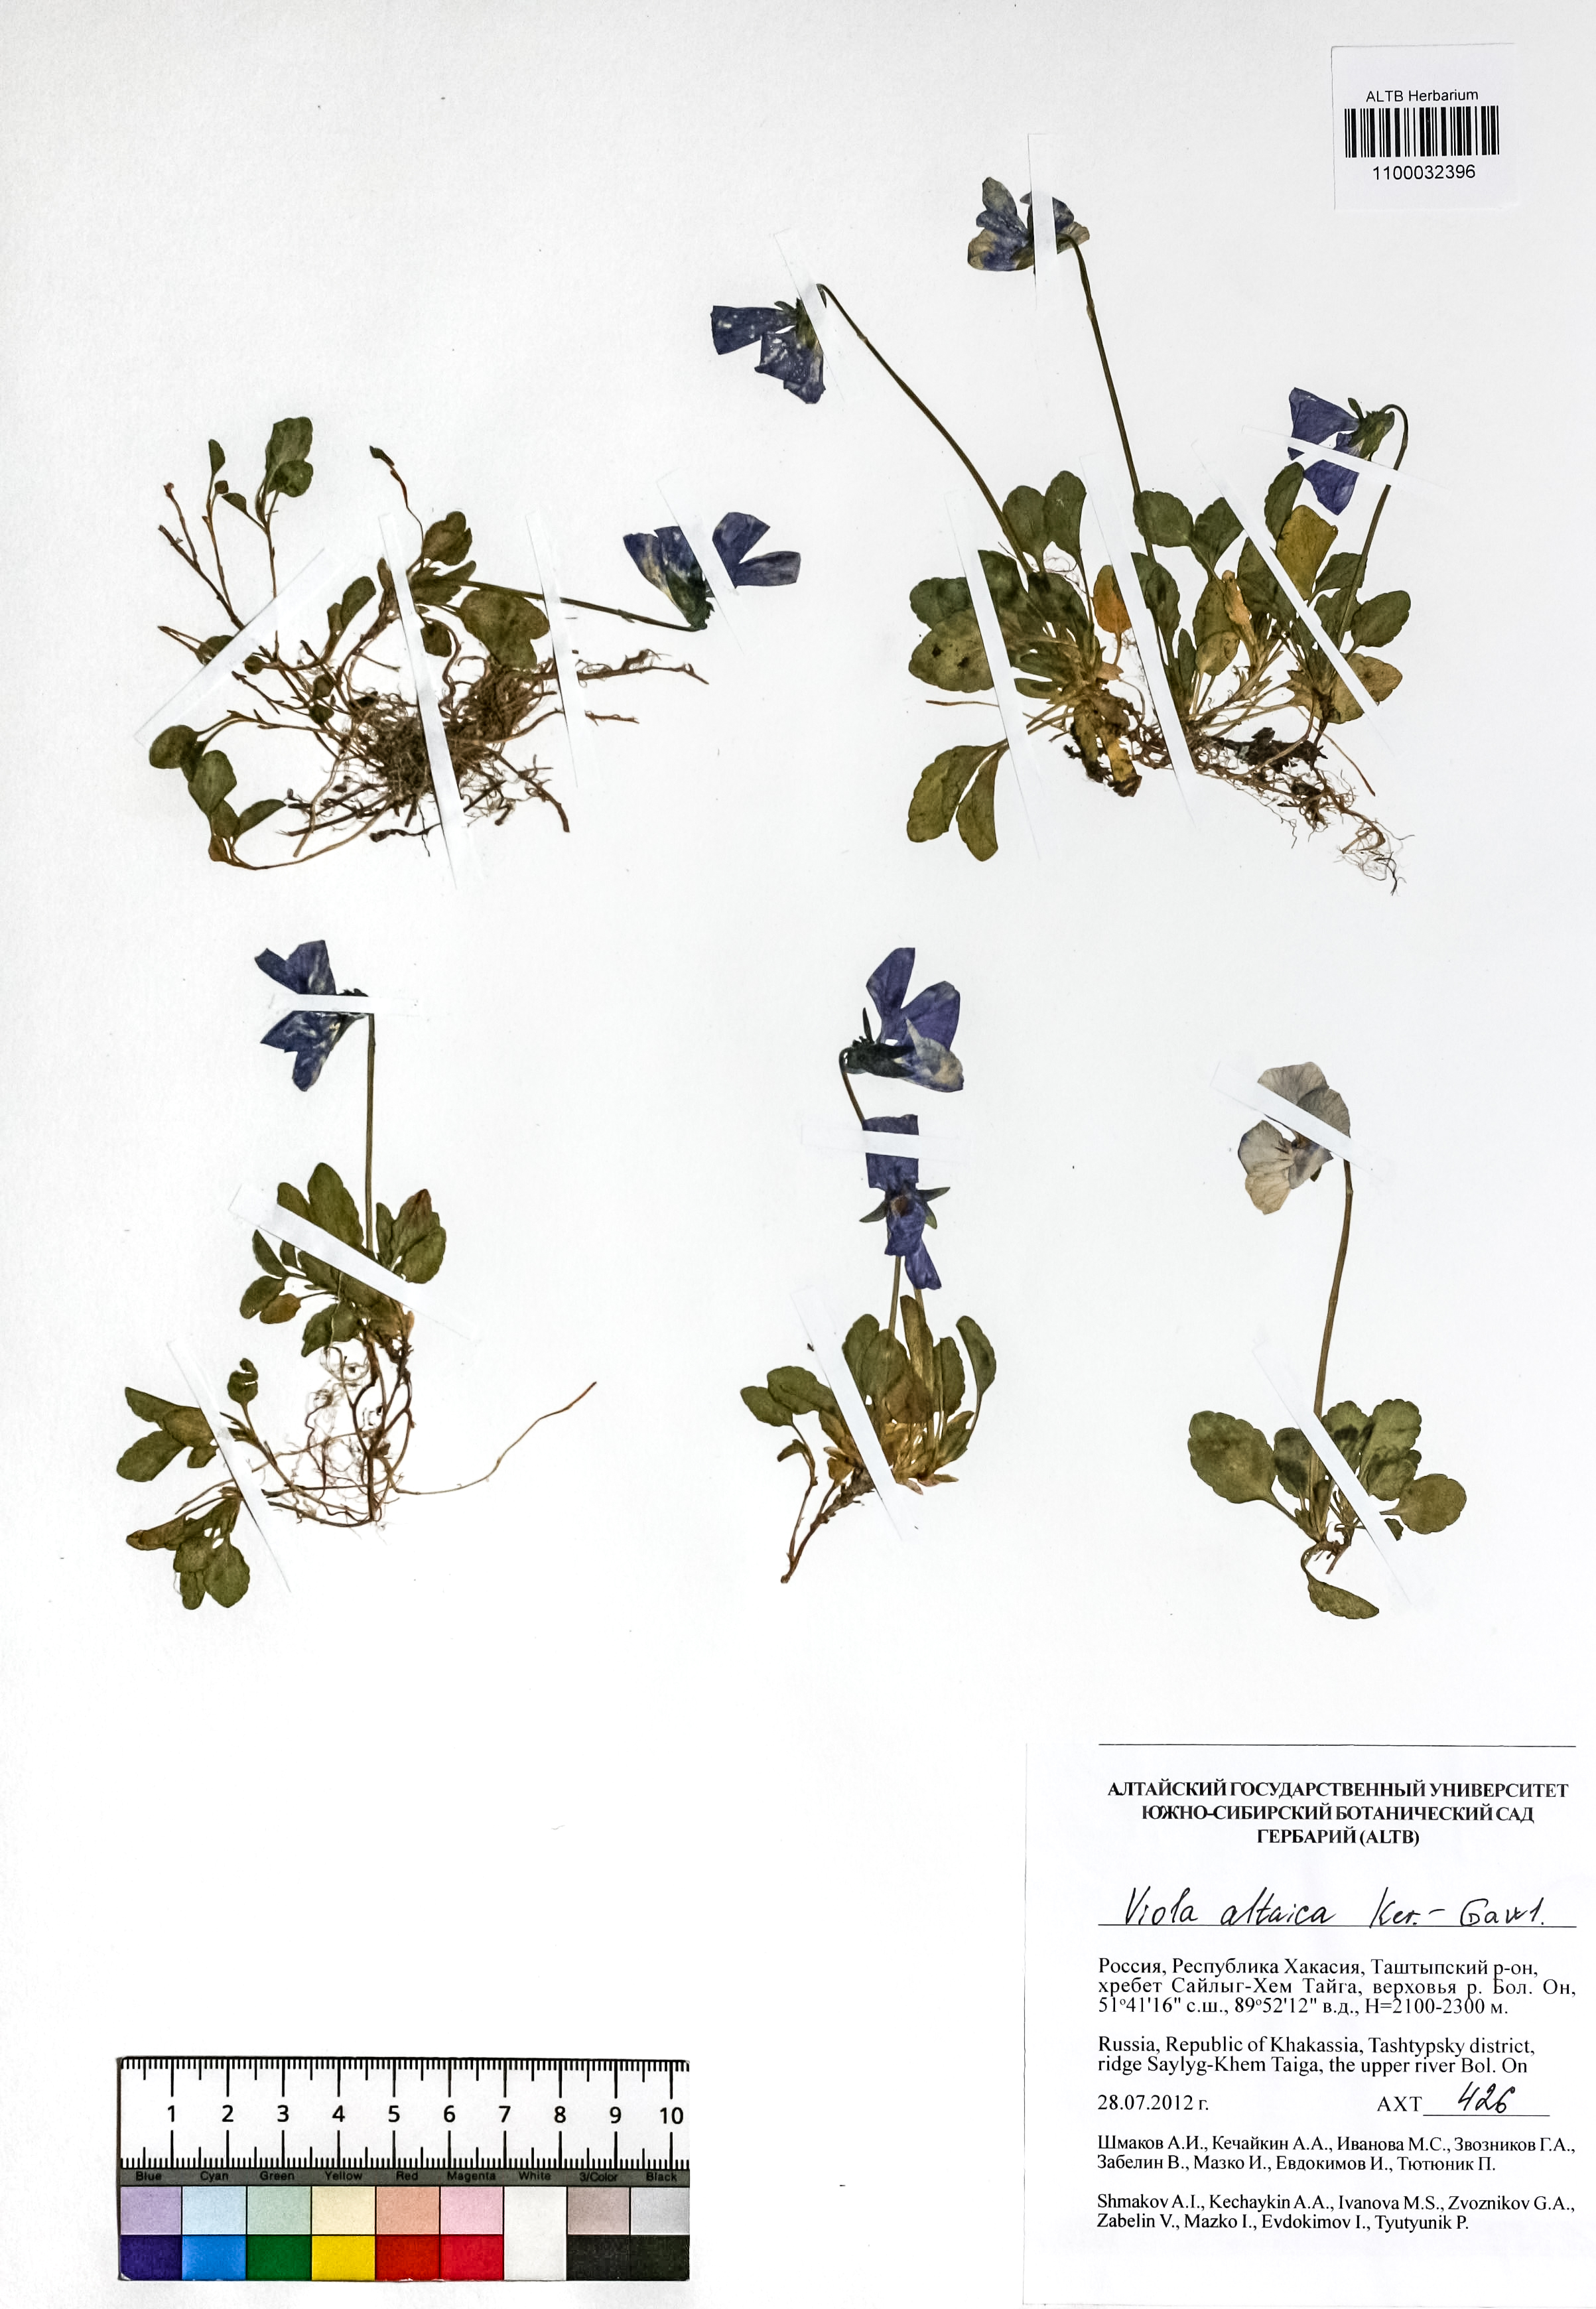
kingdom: Plantae
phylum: Tracheophyta
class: Magnoliopsida
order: Malpighiales
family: Violaceae
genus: Viola
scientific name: Viola altaica
